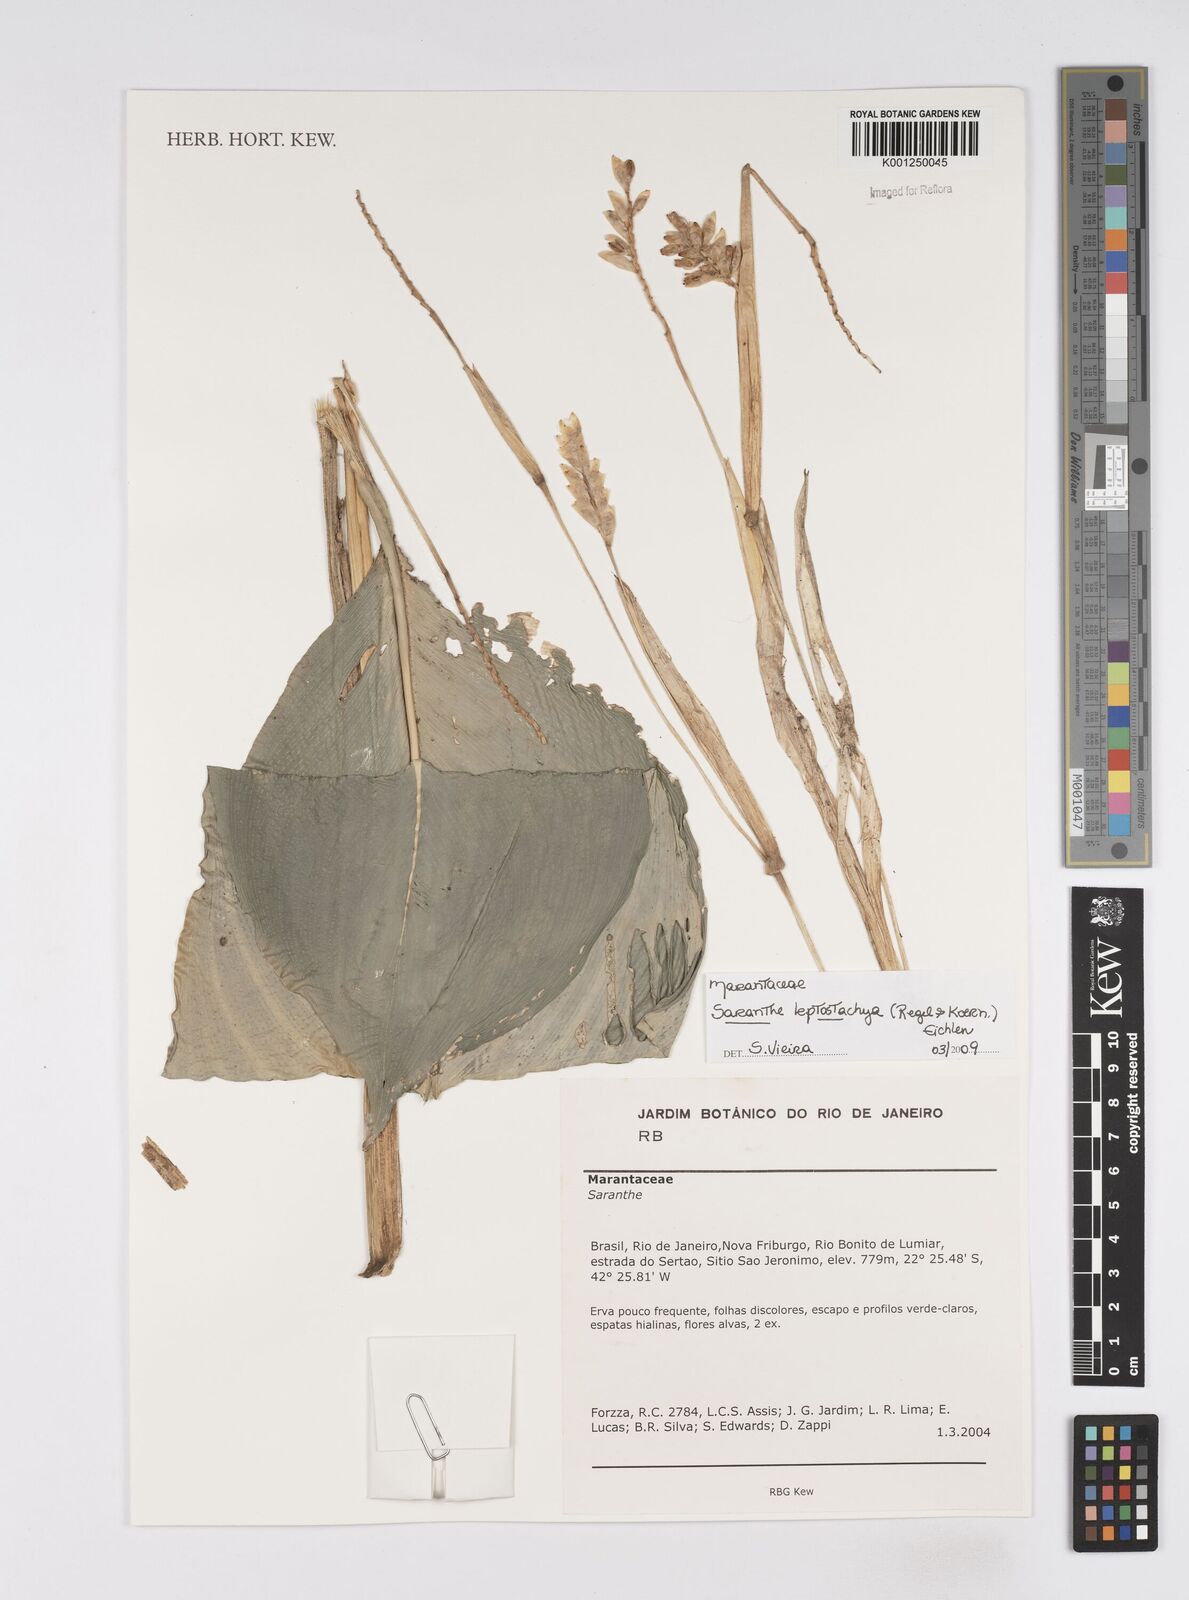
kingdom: Plantae
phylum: Tracheophyta
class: Liliopsida
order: Zingiberales
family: Marantaceae
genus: Saranthe
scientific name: Saranthe leptostachya
